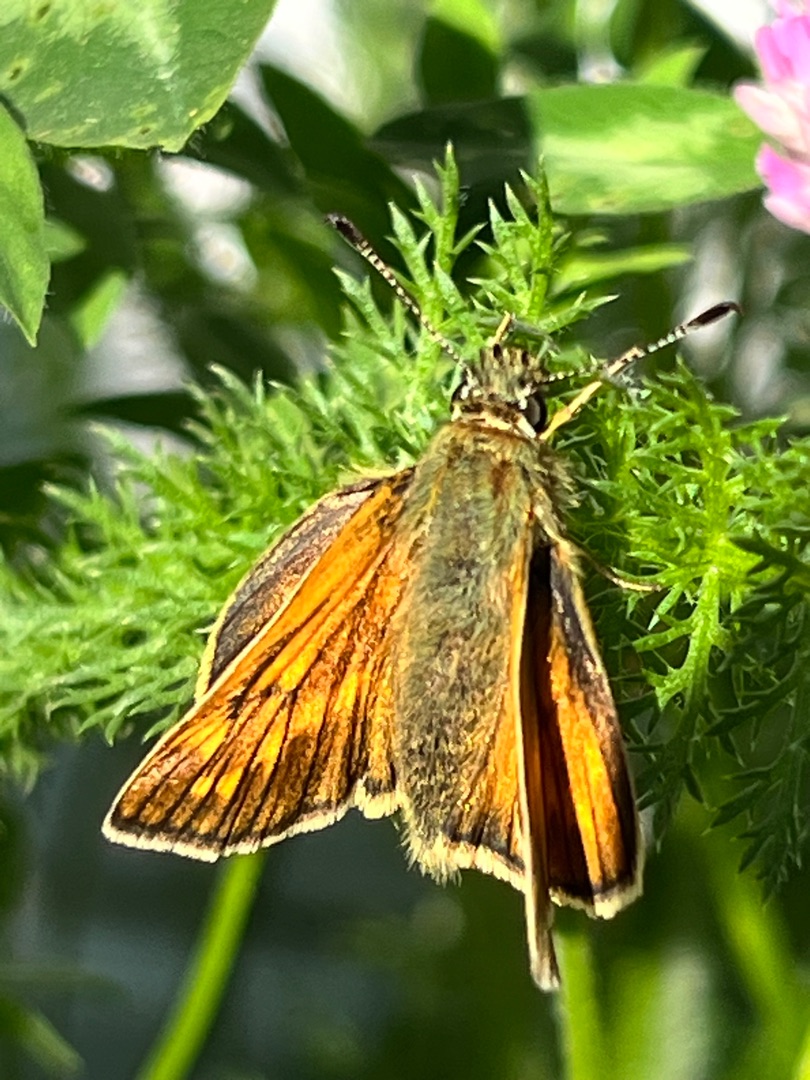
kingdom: Animalia
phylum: Arthropoda
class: Insecta
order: Lepidoptera
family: Hesperiidae
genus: Ochlodes
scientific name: Ochlodes venata
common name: Stor bredpande
